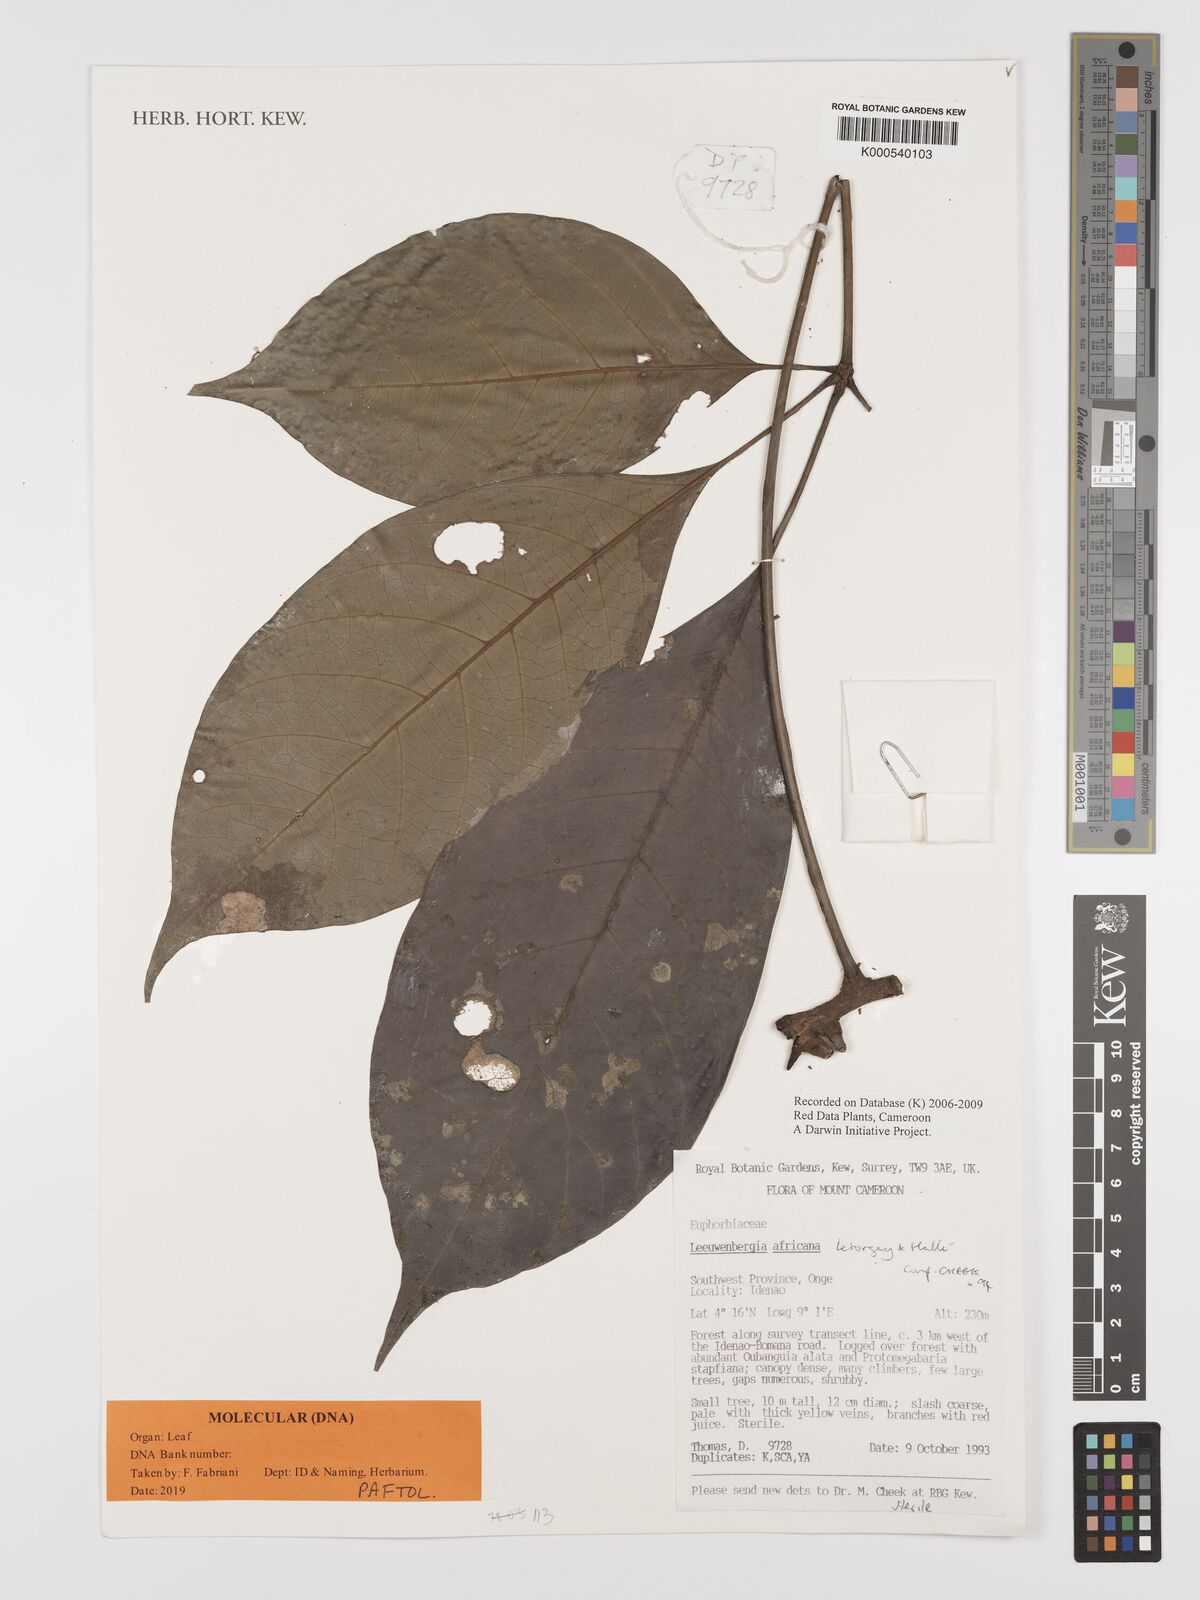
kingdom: Plantae
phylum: Tracheophyta
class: Magnoliopsida
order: Malpighiales
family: Euphorbiaceae
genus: Leeuwenbergia
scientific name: Leeuwenbergia
